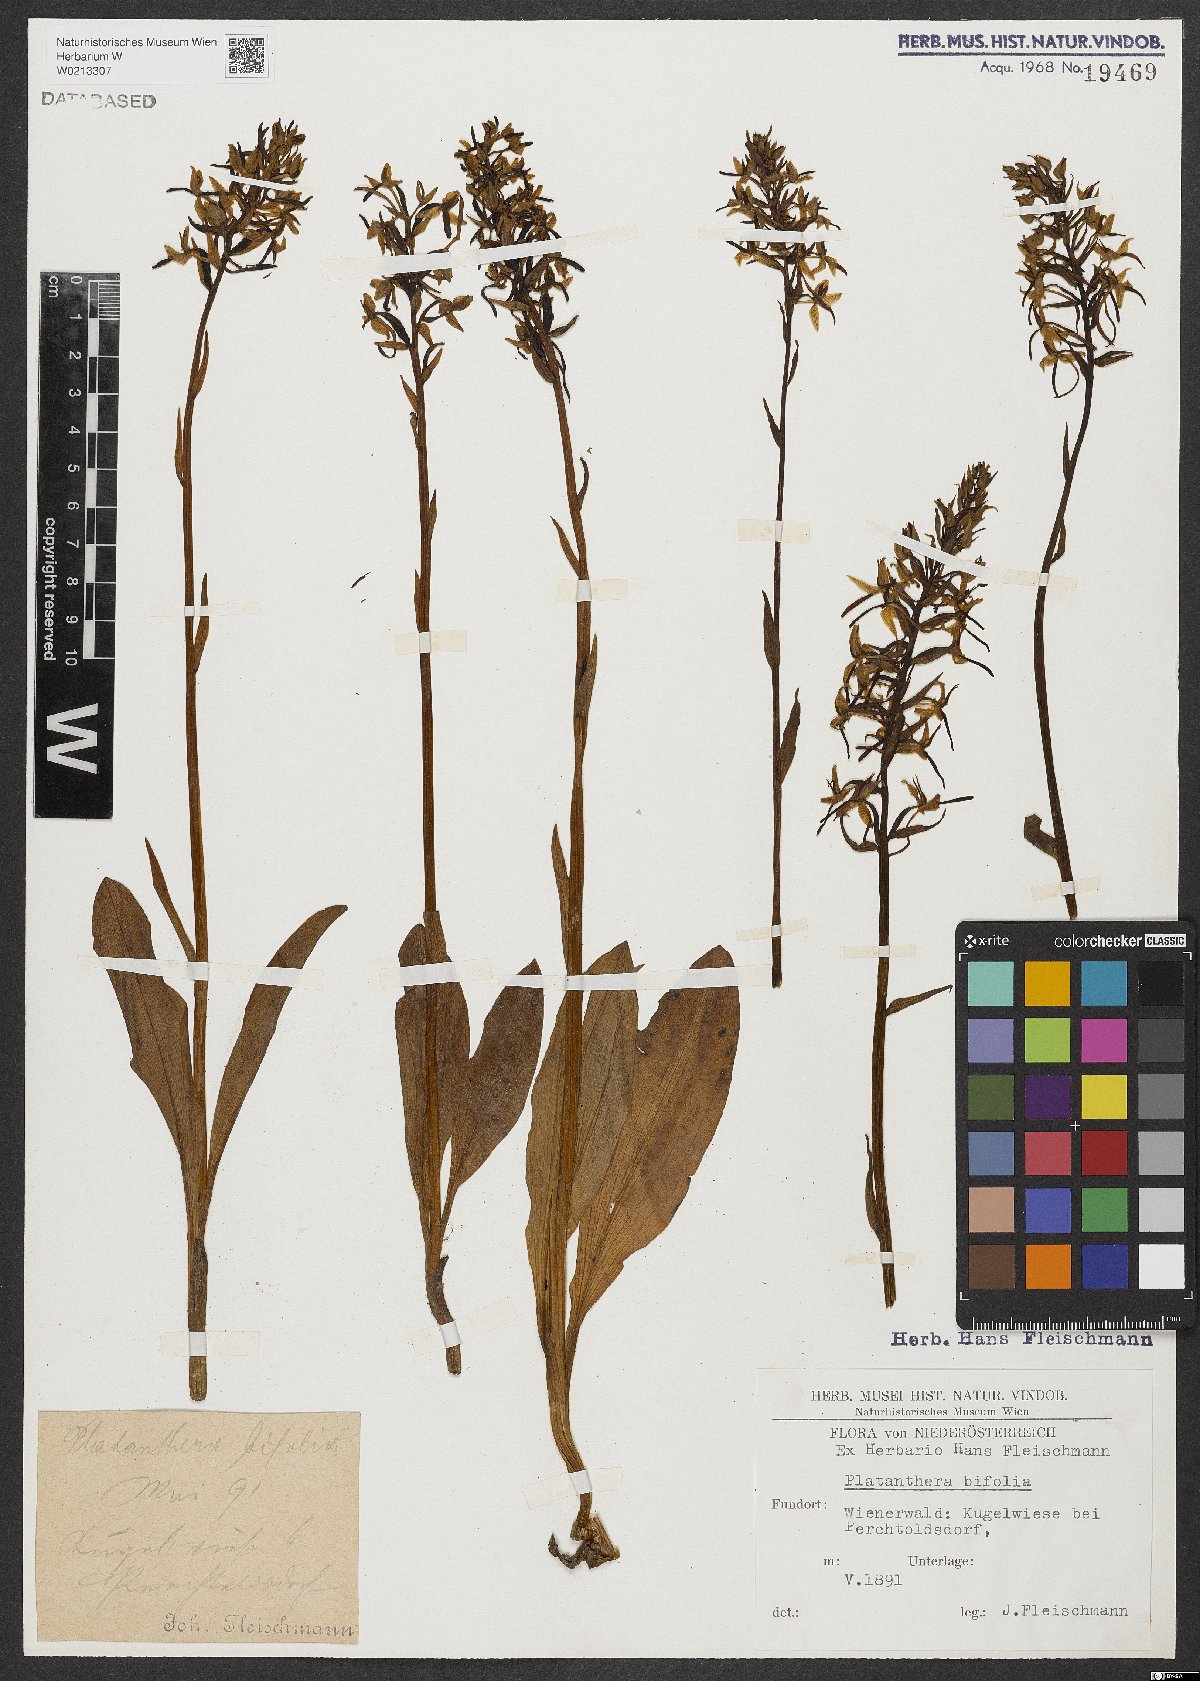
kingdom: Plantae
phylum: Tracheophyta
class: Liliopsida
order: Asparagales
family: Orchidaceae
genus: Platanthera
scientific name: Platanthera bifolia
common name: Lesser butterfly-orchid
